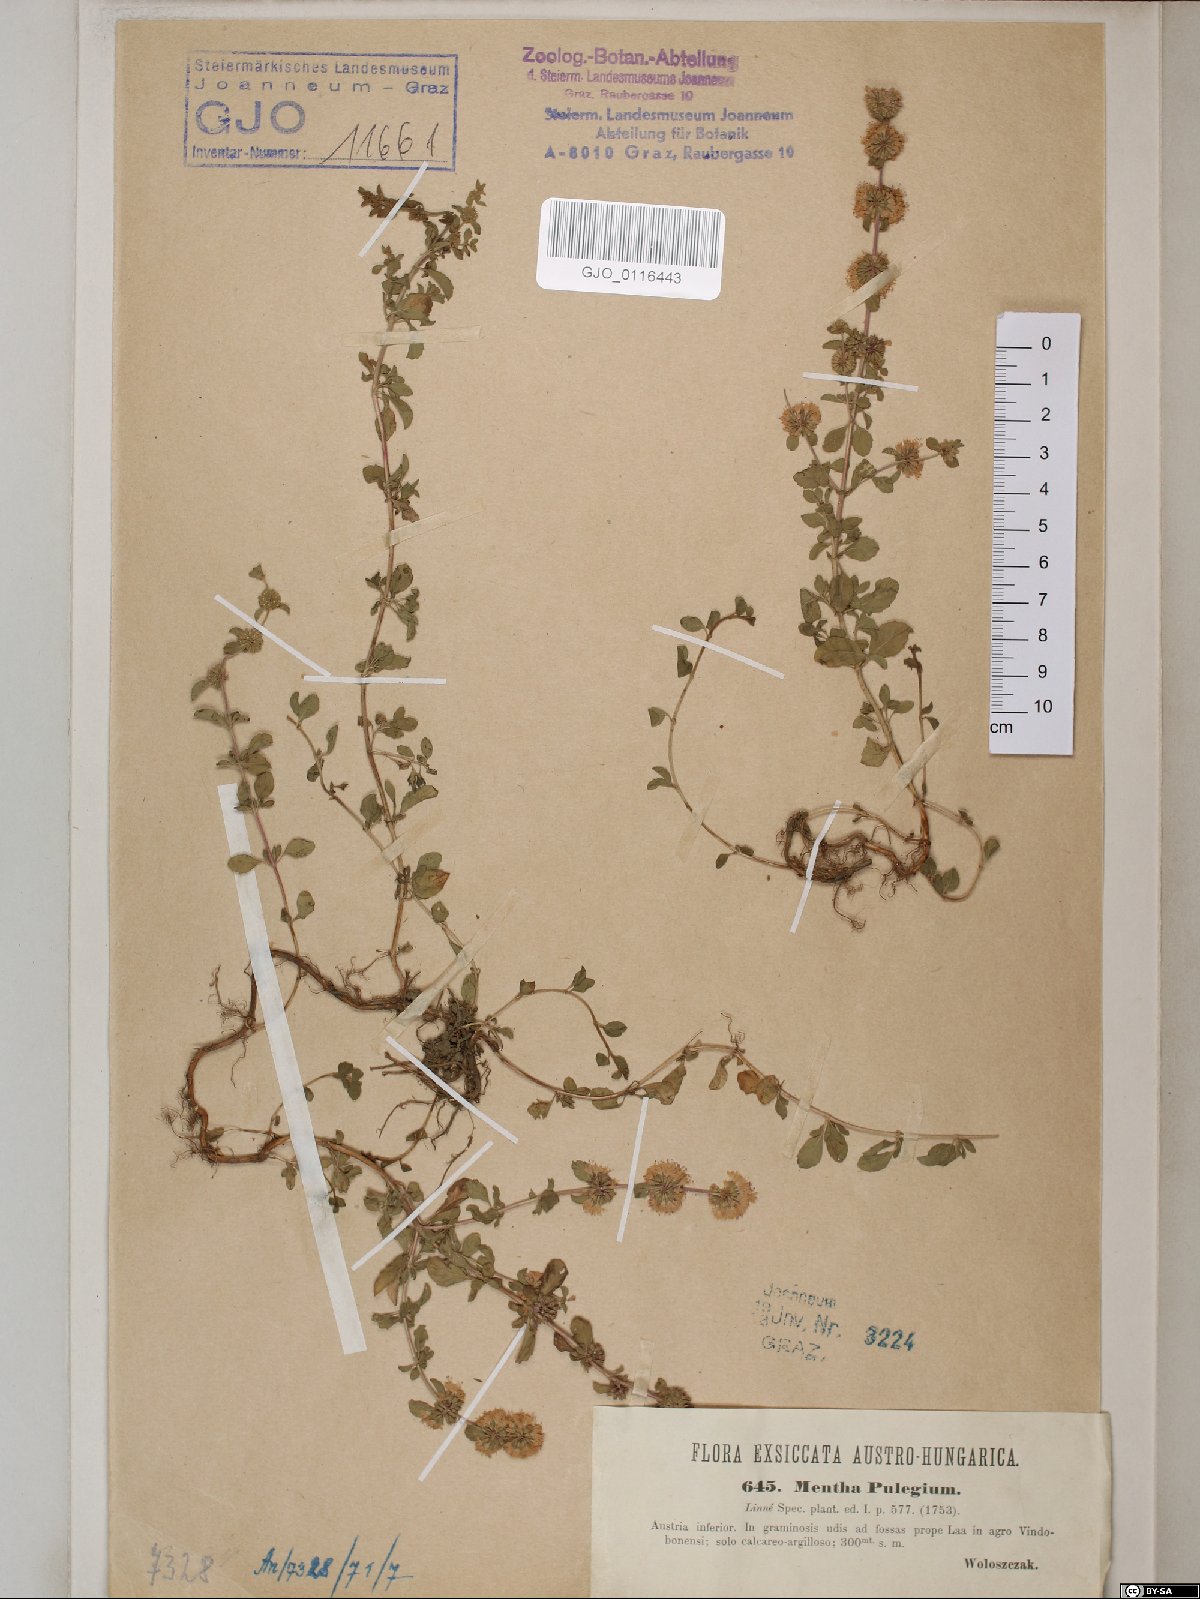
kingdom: Plantae
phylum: Tracheophyta
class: Magnoliopsida
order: Lamiales
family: Lamiaceae
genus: Mentha
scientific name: Mentha pulegium
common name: Pennyroyal
